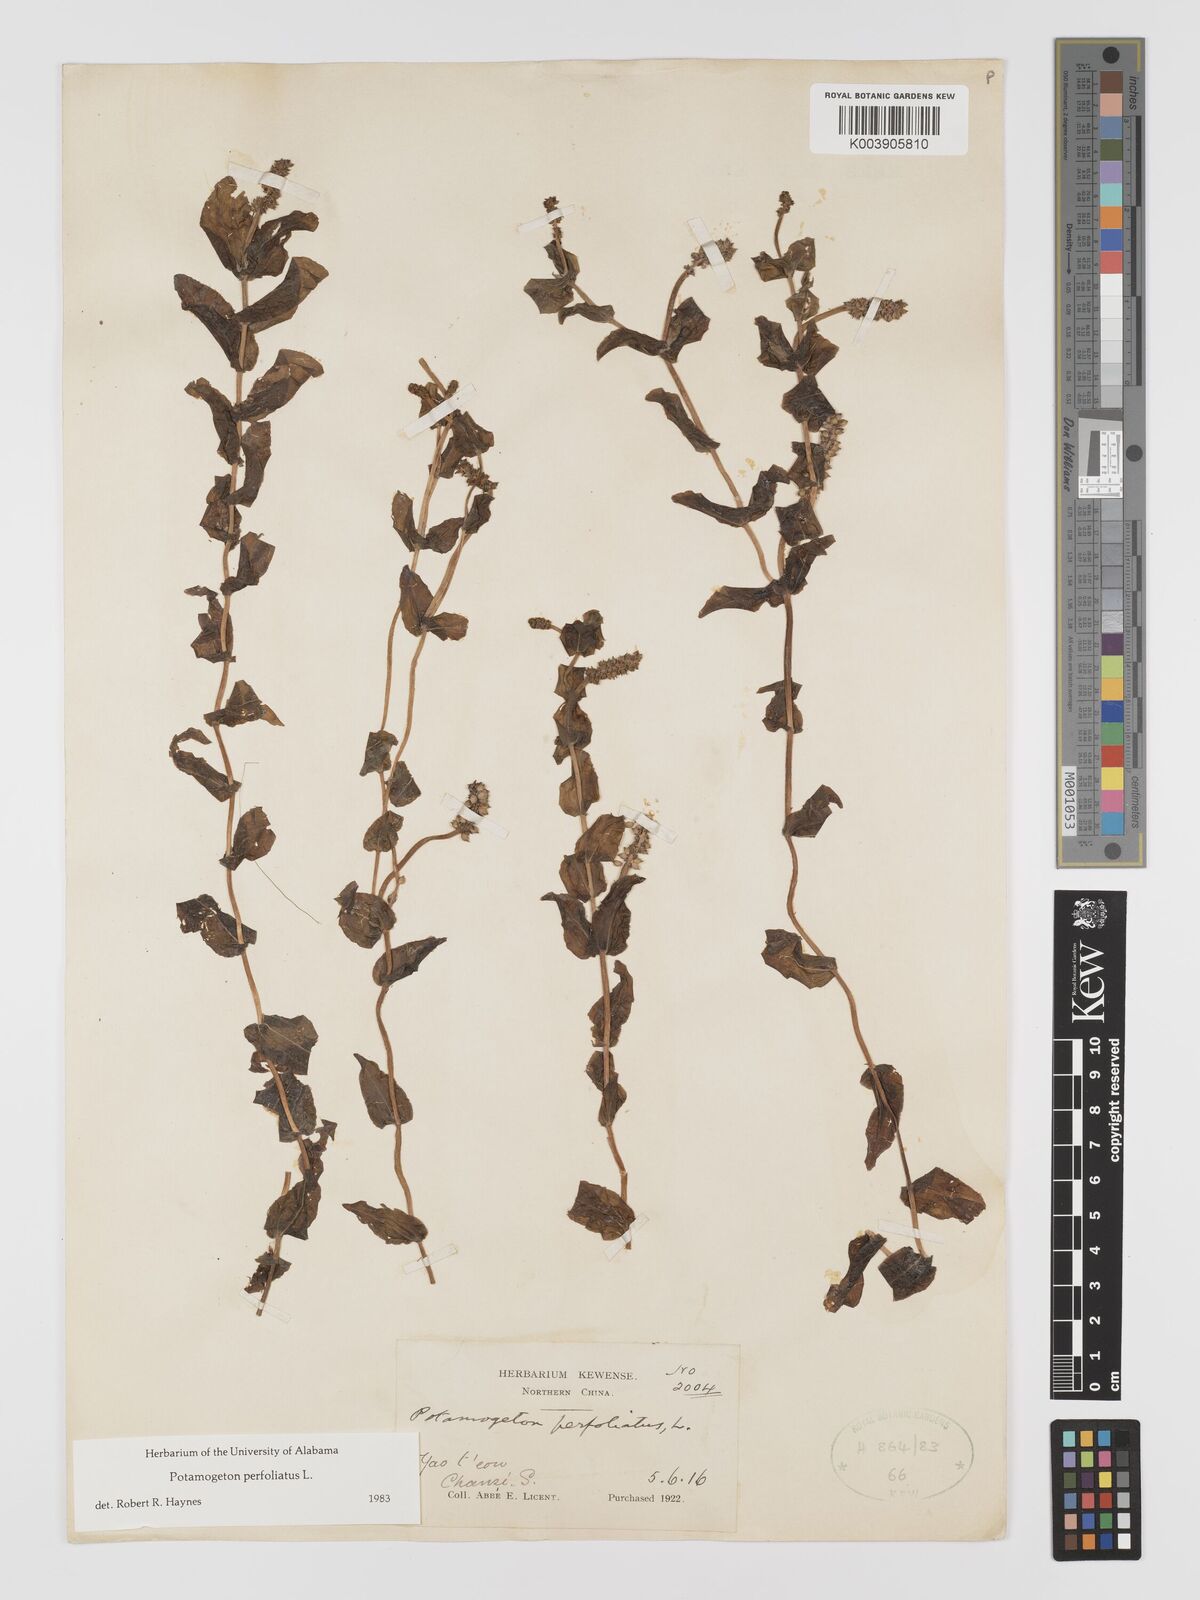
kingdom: Plantae
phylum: Tracheophyta
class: Liliopsida
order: Alismatales
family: Potamogetonaceae
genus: Potamogeton
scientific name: Potamogeton perfoliatus
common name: Perfoliate pondweed
